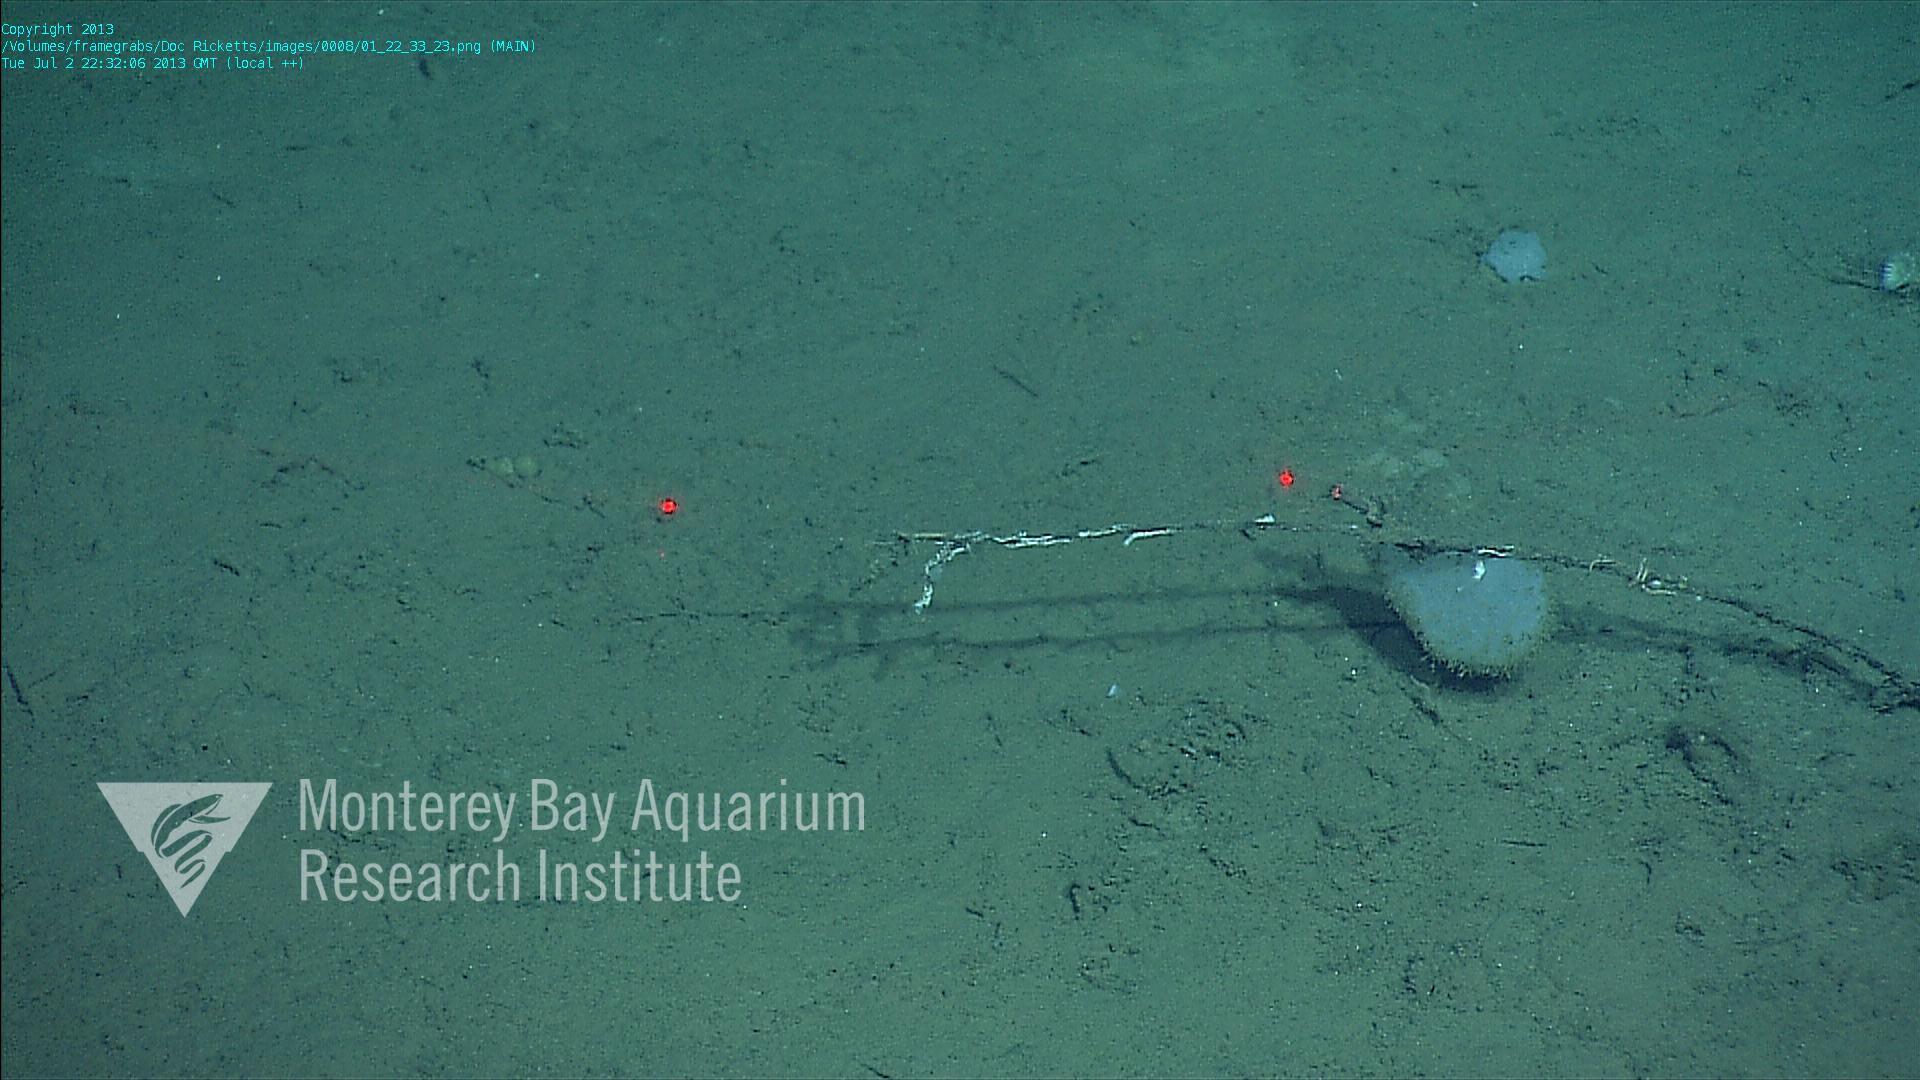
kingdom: Animalia
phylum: Porifera
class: Hexactinellida
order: Lyssacinosida
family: Rossellidae
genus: Bathydorus
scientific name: Bathydorus spinosus
